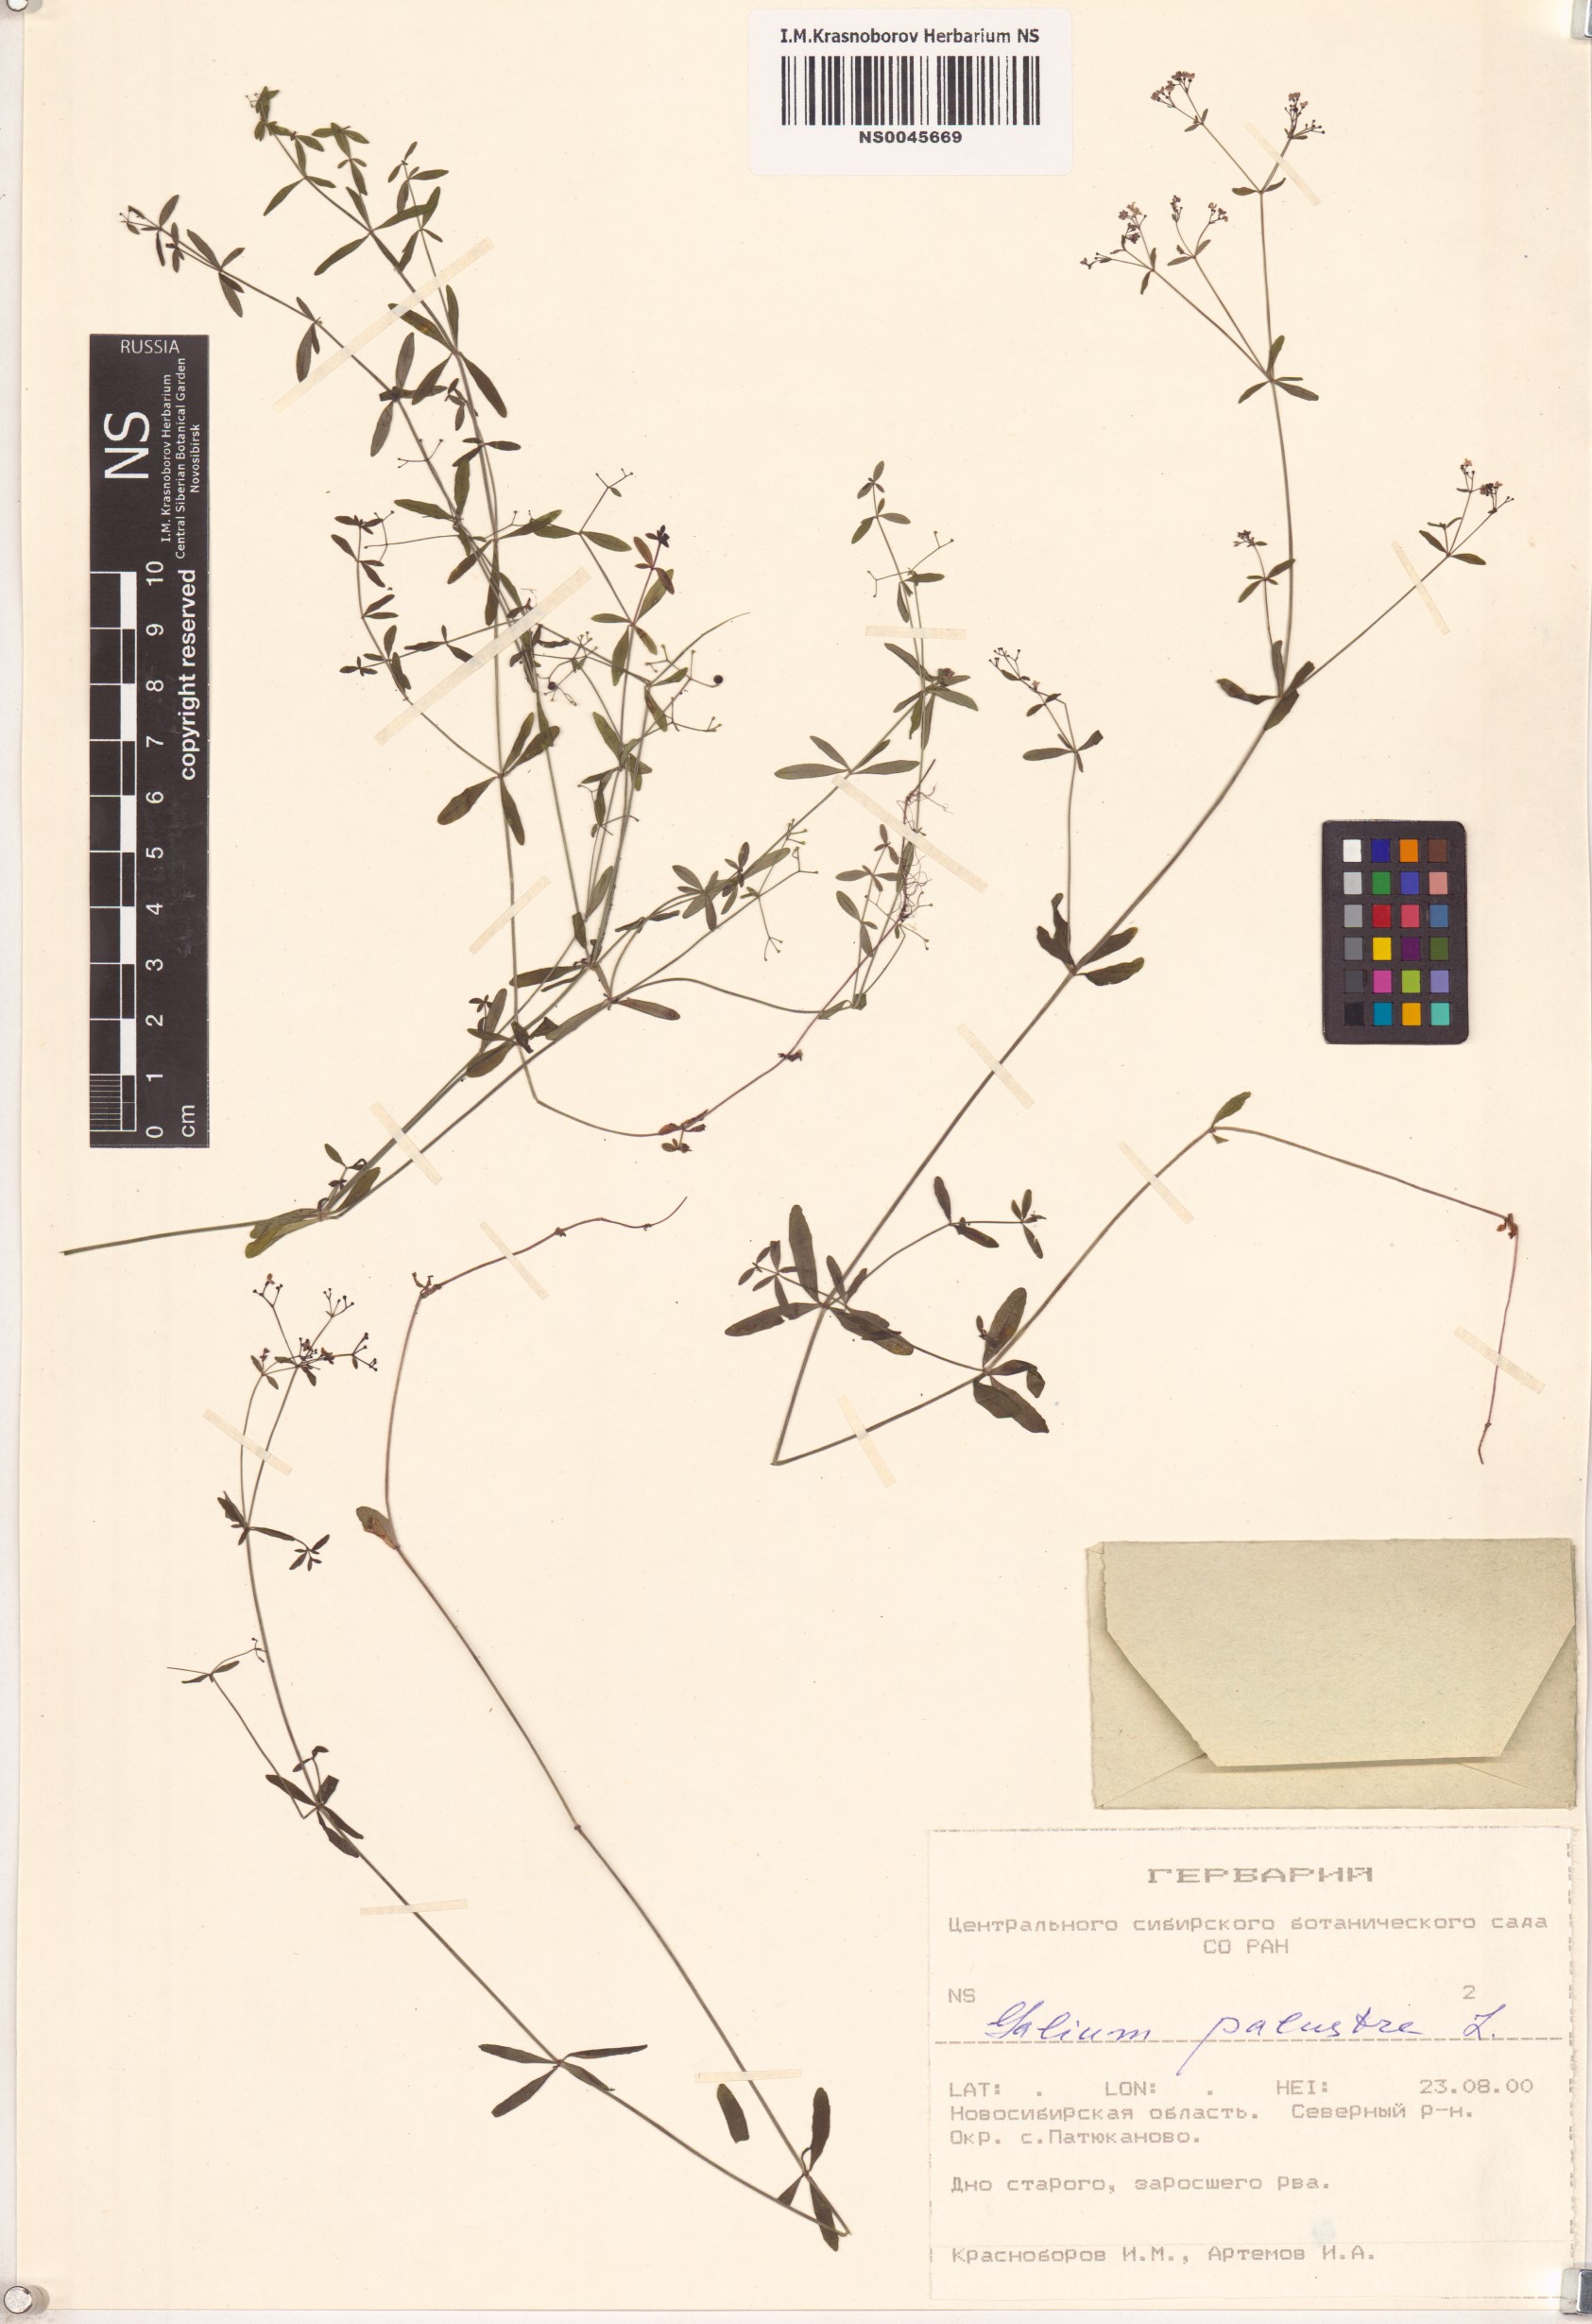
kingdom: Plantae
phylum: Tracheophyta
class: Magnoliopsida
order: Gentianales
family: Rubiaceae
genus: Galium
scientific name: Galium palustre
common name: Common marsh-bedstraw
